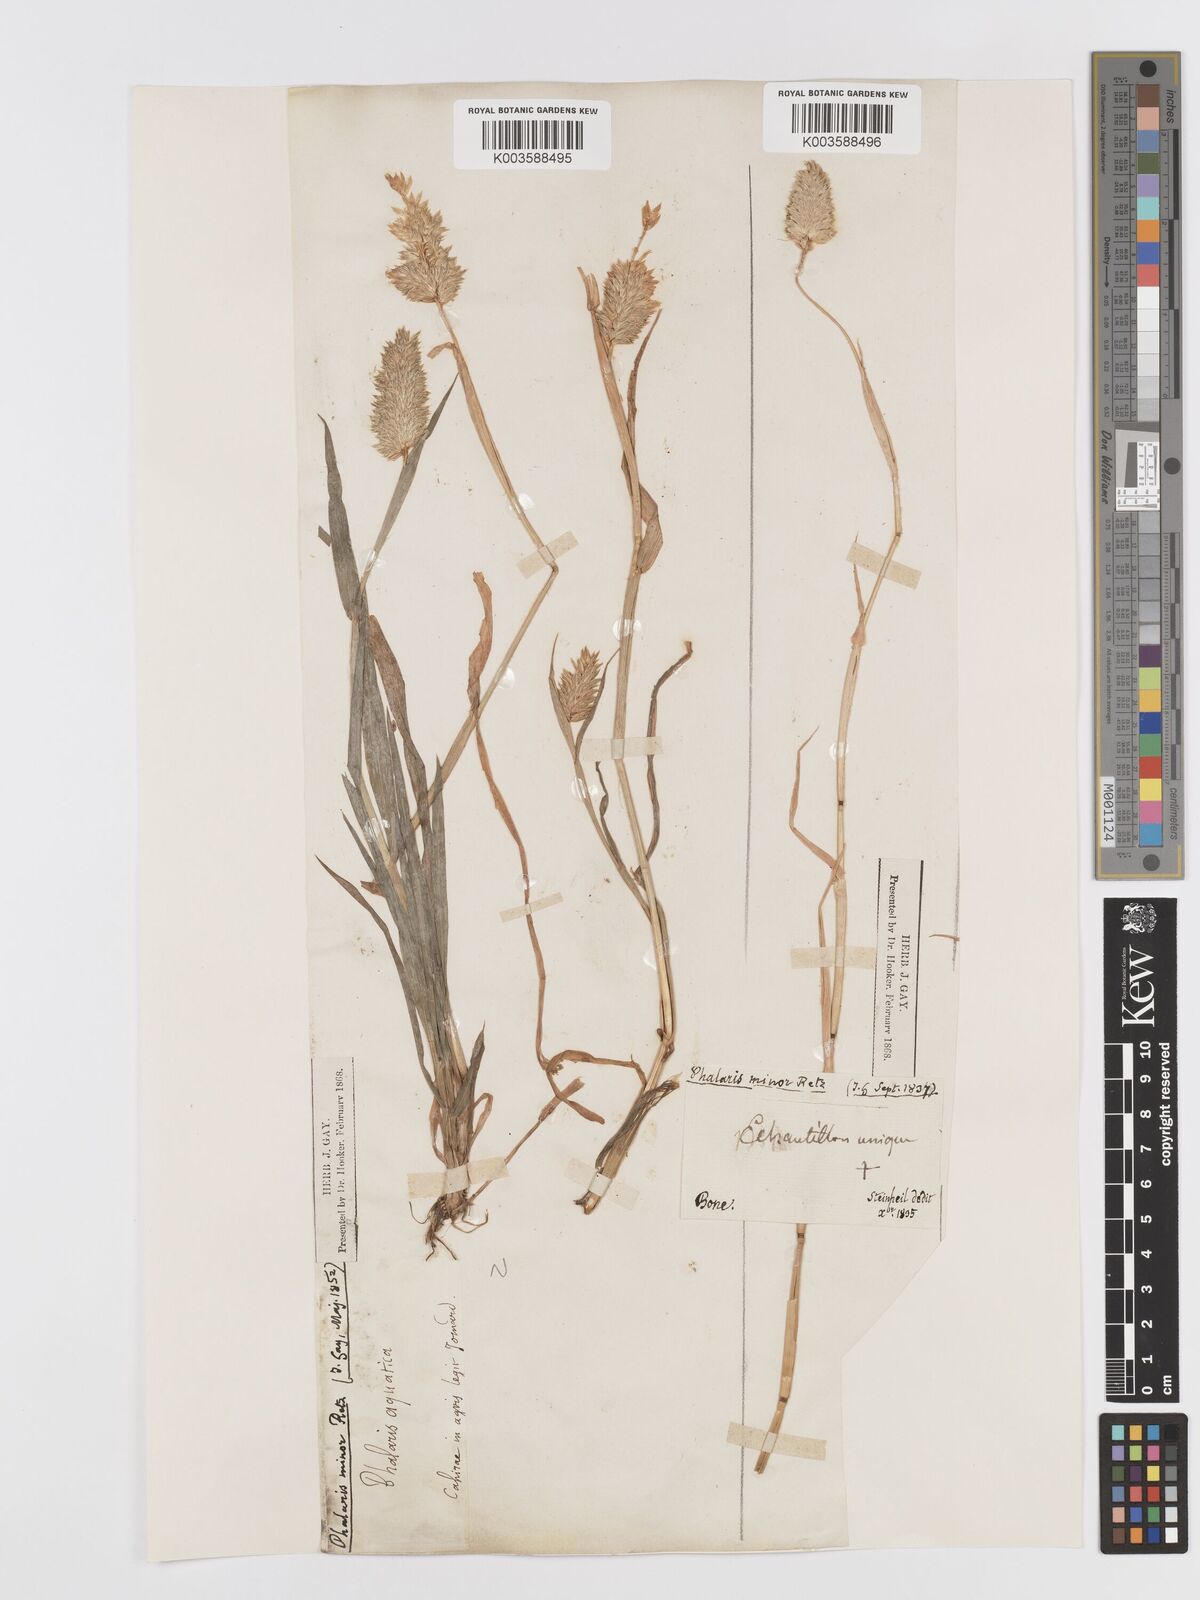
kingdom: Plantae
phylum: Tracheophyta
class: Liliopsida
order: Poales
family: Poaceae
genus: Phalaris
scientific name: Phalaris minor
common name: Littleseed canarygrass
